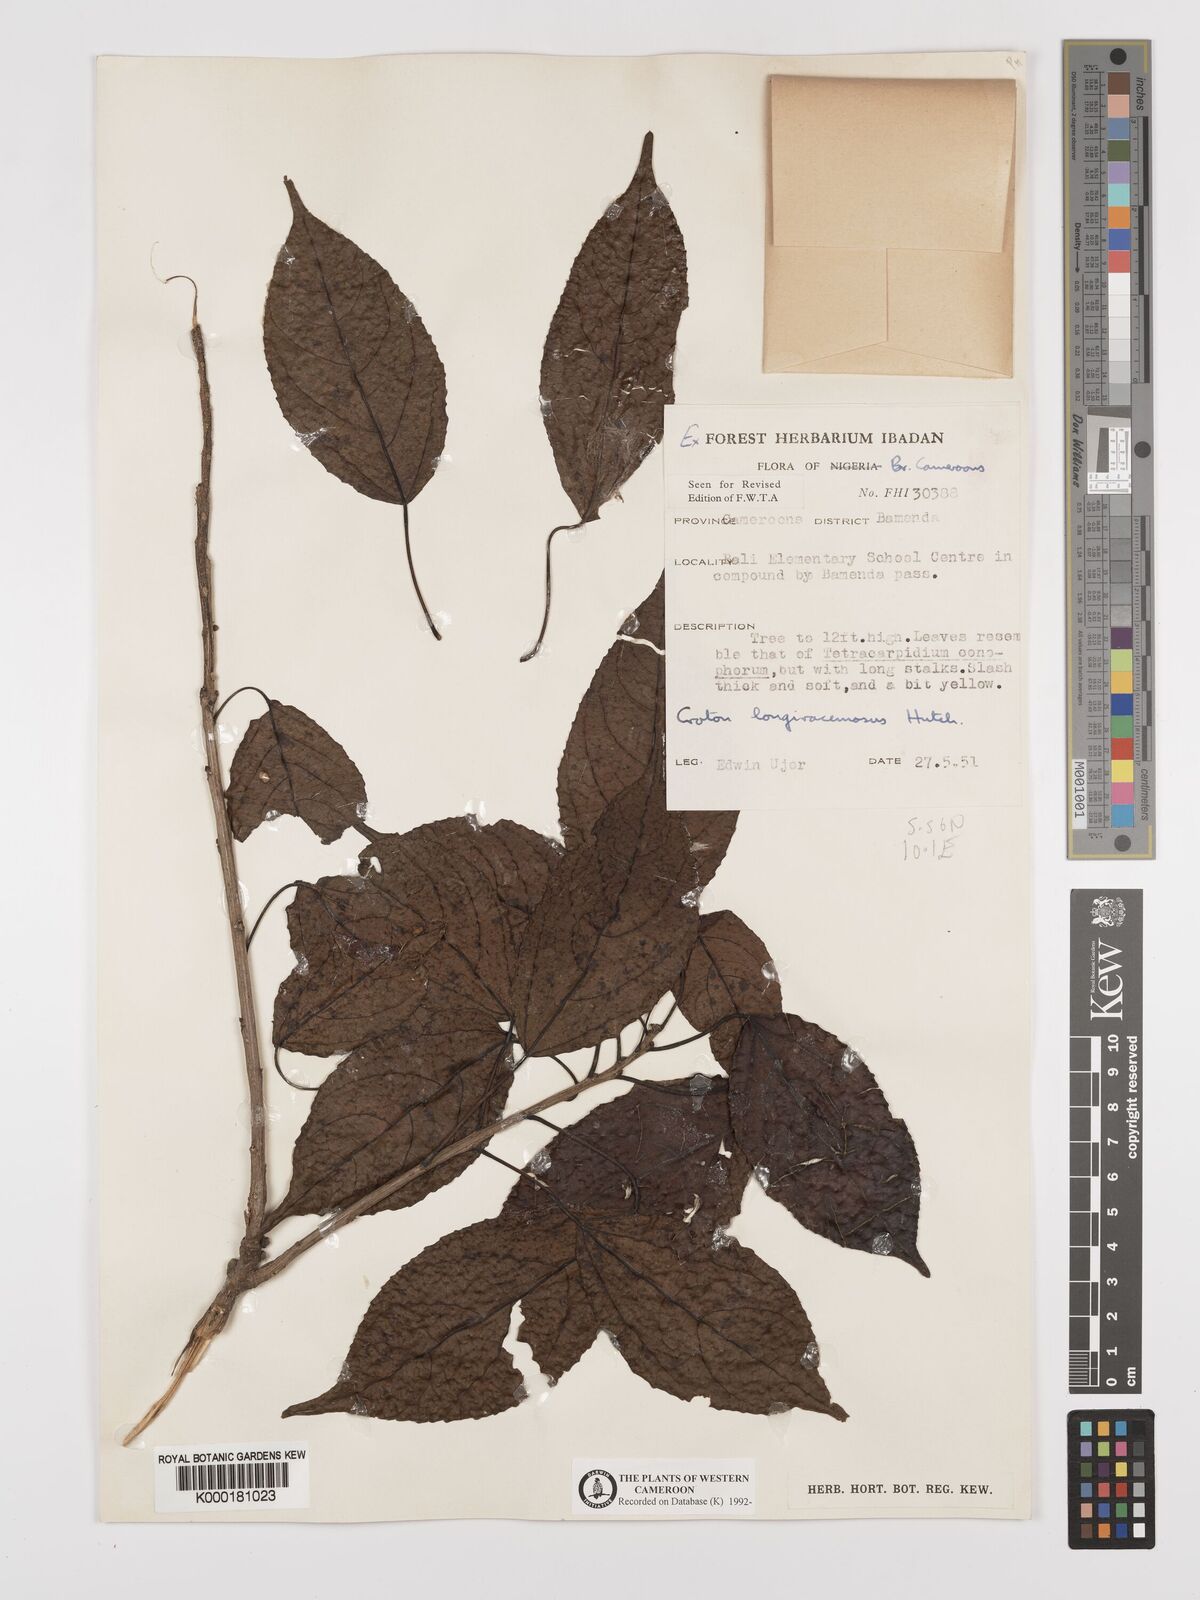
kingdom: Plantae
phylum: Tracheophyta
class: Magnoliopsida
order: Malpighiales
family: Euphorbiaceae
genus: Croton
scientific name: Croton longiracemosus
